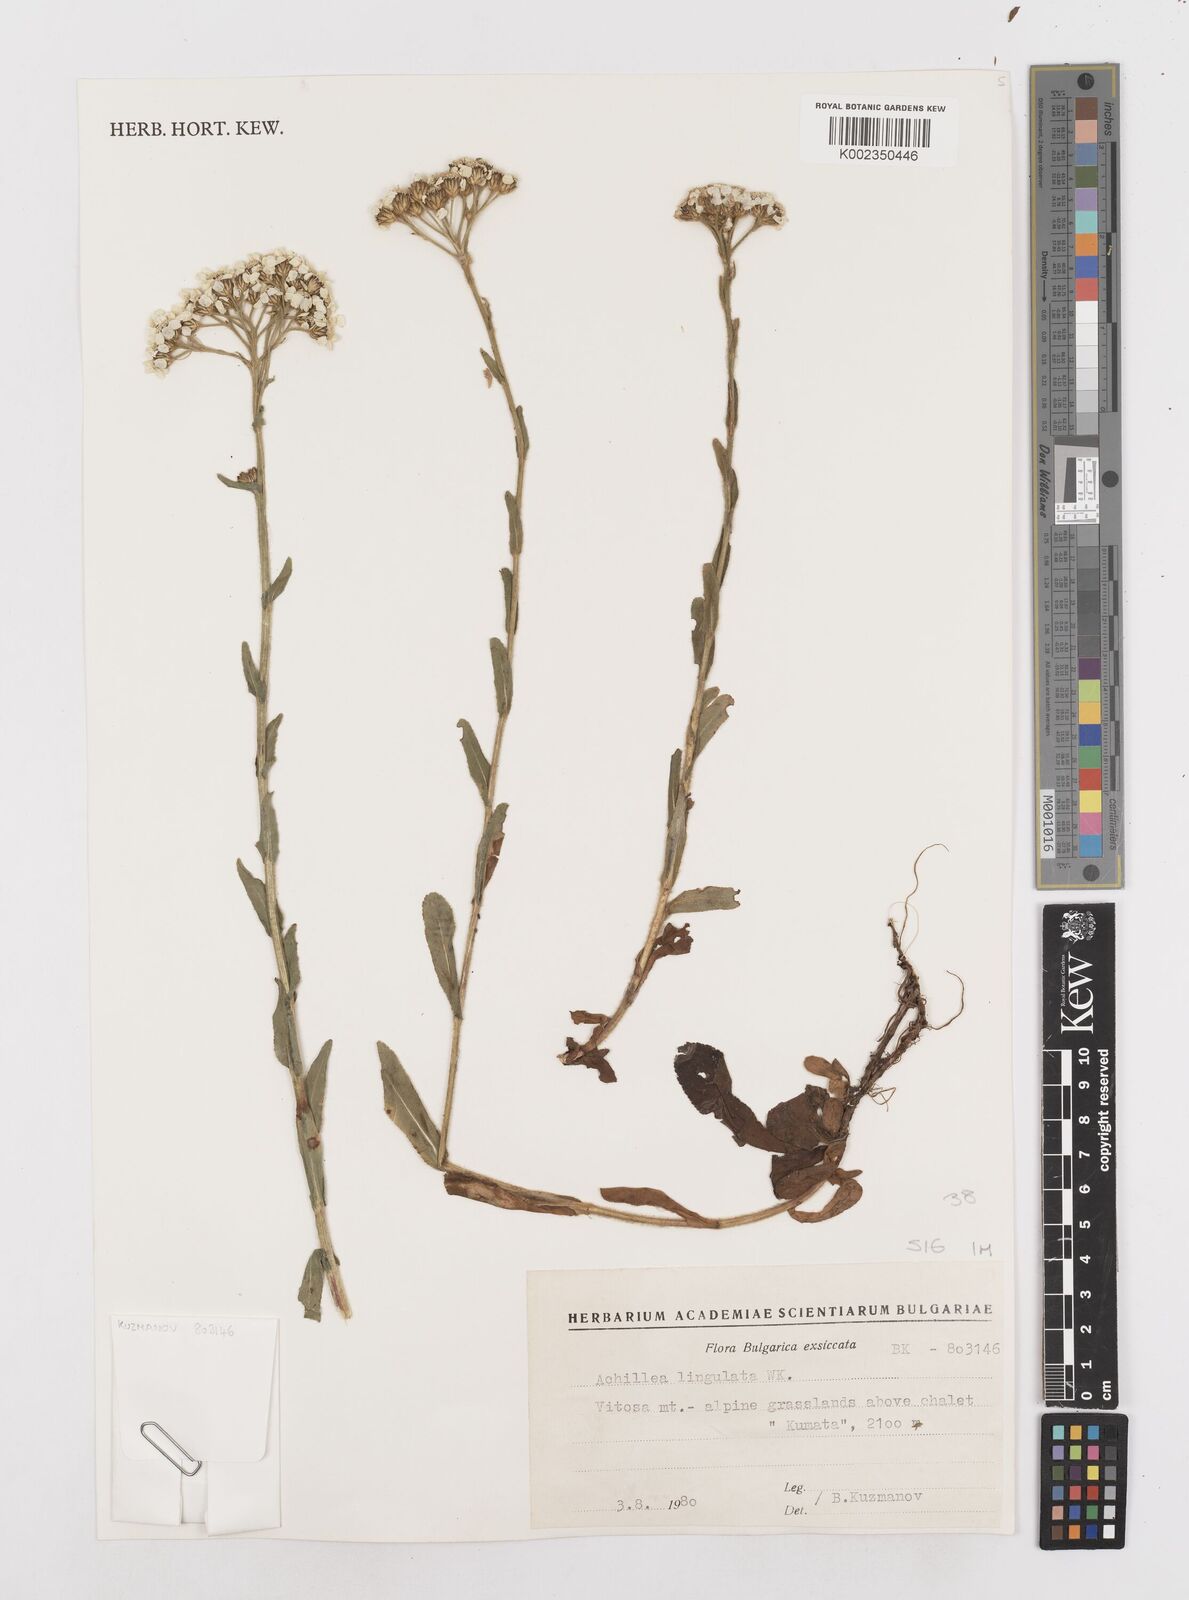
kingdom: Plantae
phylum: Tracheophyta
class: Magnoliopsida
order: Asterales
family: Asteraceae
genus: Achillea
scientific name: Achillea lingulata
